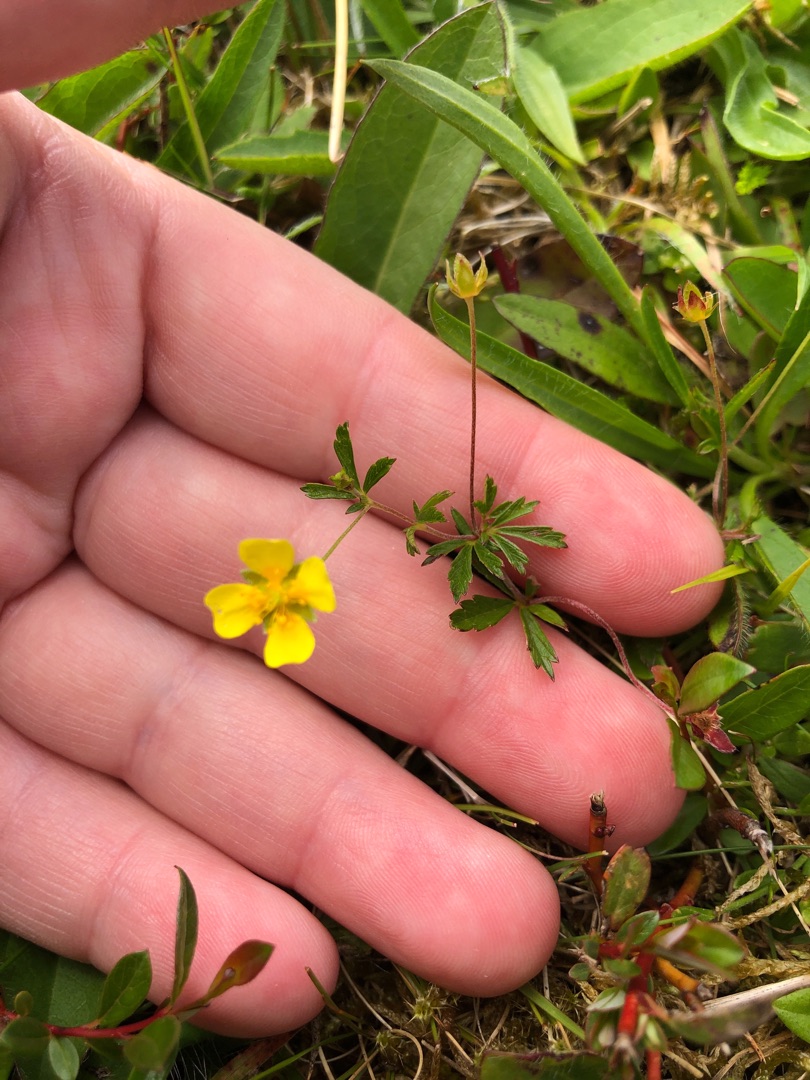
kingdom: Plantae
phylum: Tracheophyta
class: Magnoliopsida
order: Rosales
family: Rosaceae
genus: Potentilla
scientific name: Potentilla erecta
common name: Tormentil
